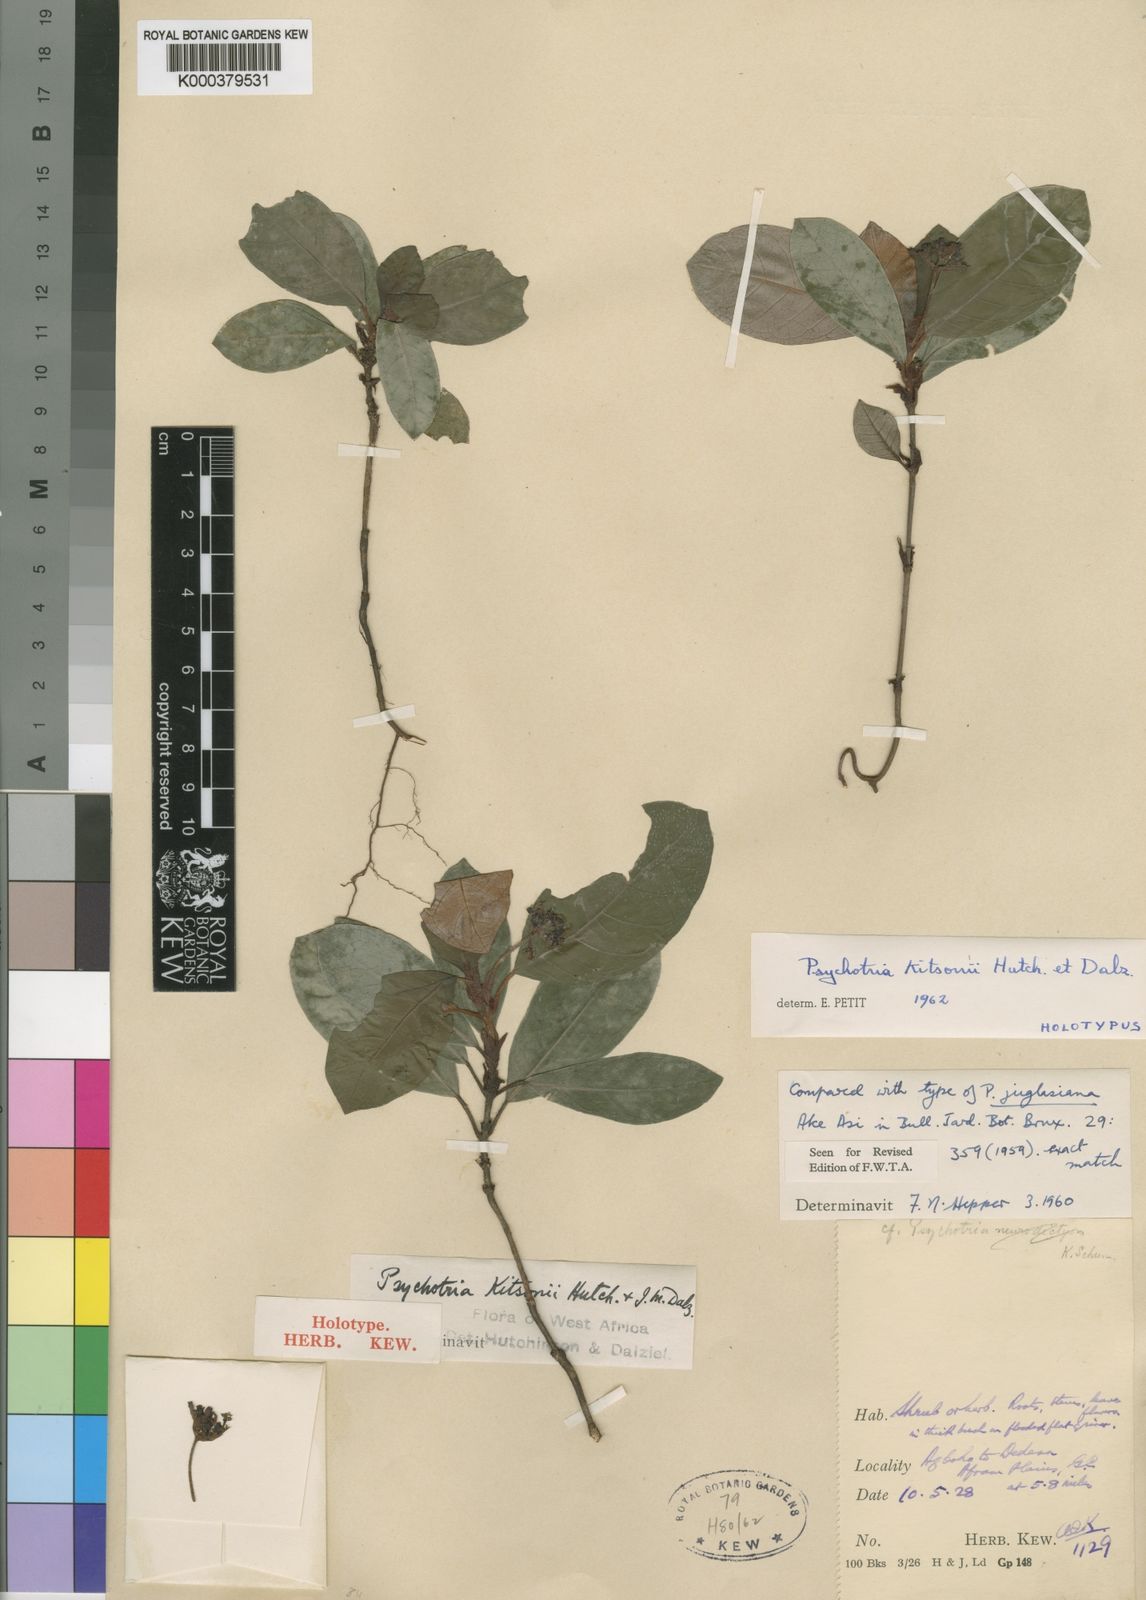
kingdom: Plantae
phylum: Tracheophyta
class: Magnoliopsida
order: Gentianales
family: Rubiaceae
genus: Psychotria
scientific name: Psychotria kitsonii
